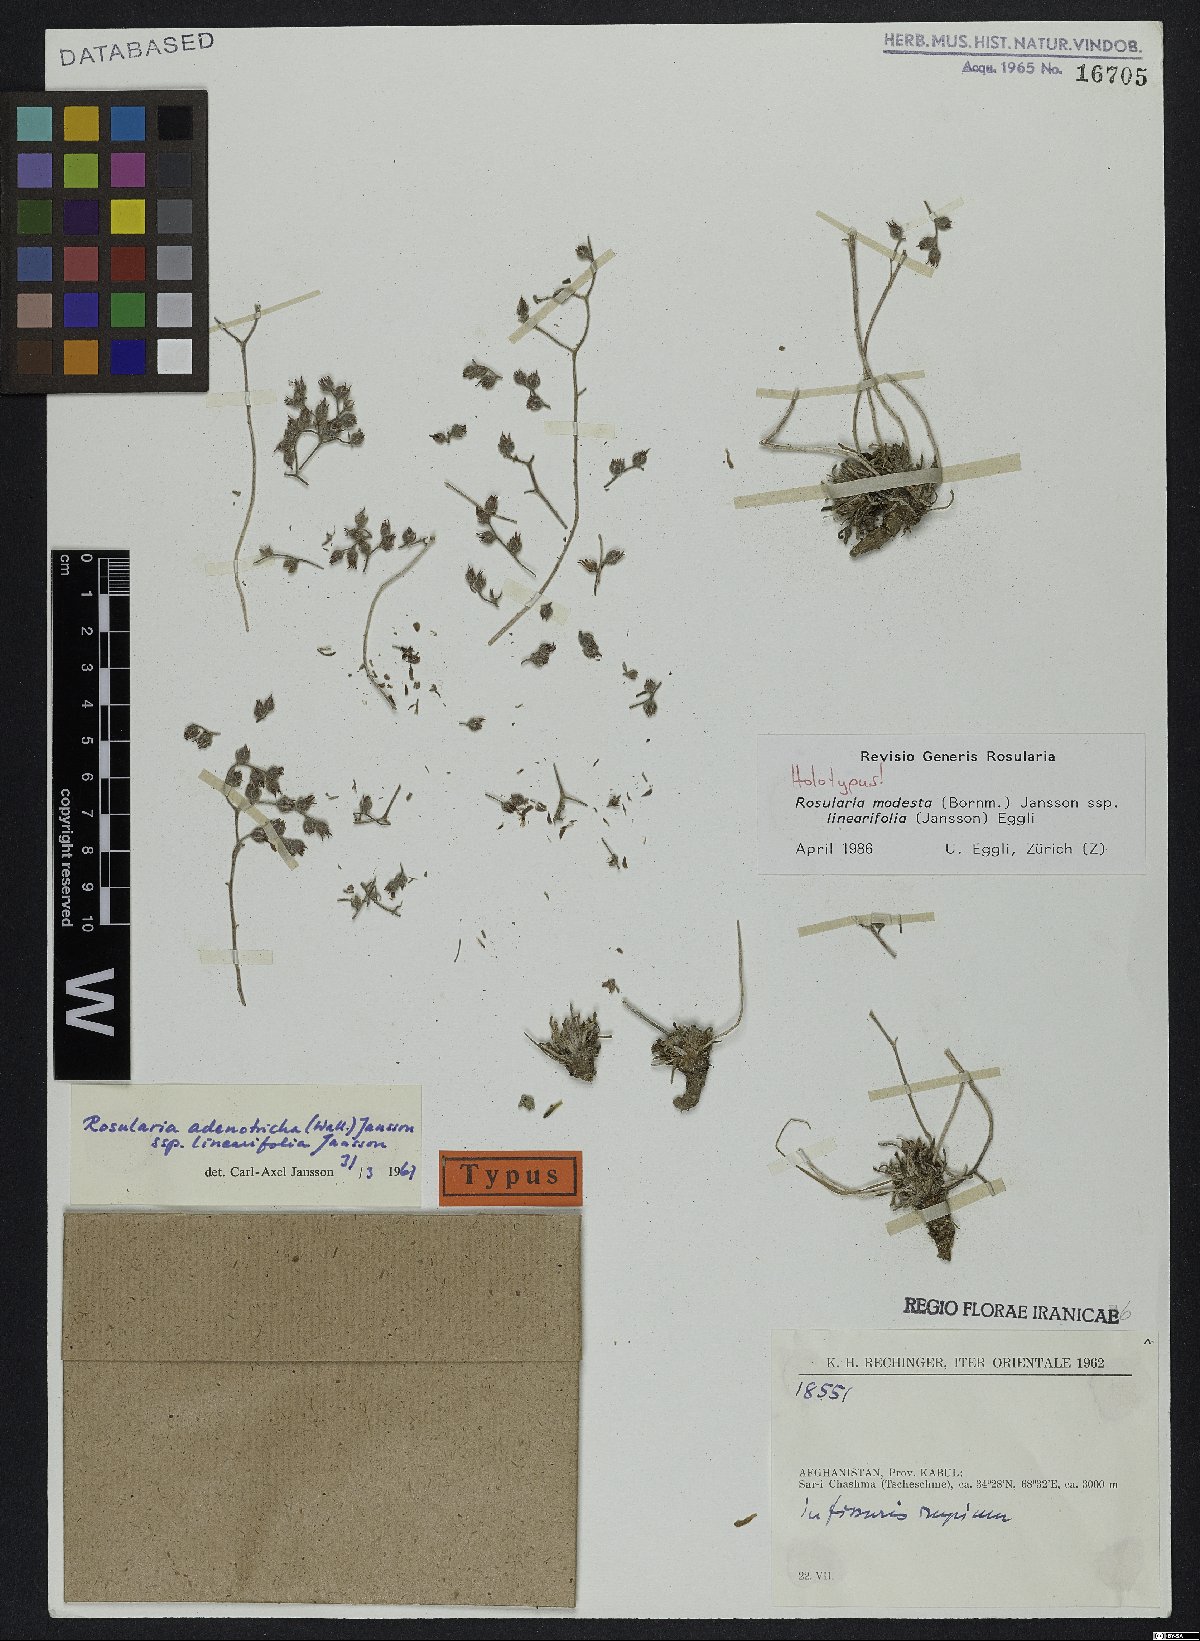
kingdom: Plantae
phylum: Tracheophyta
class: Magnoliopsida
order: Saxifragales
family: Crassulaceae
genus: Rosularia
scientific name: Rosularia modesta
